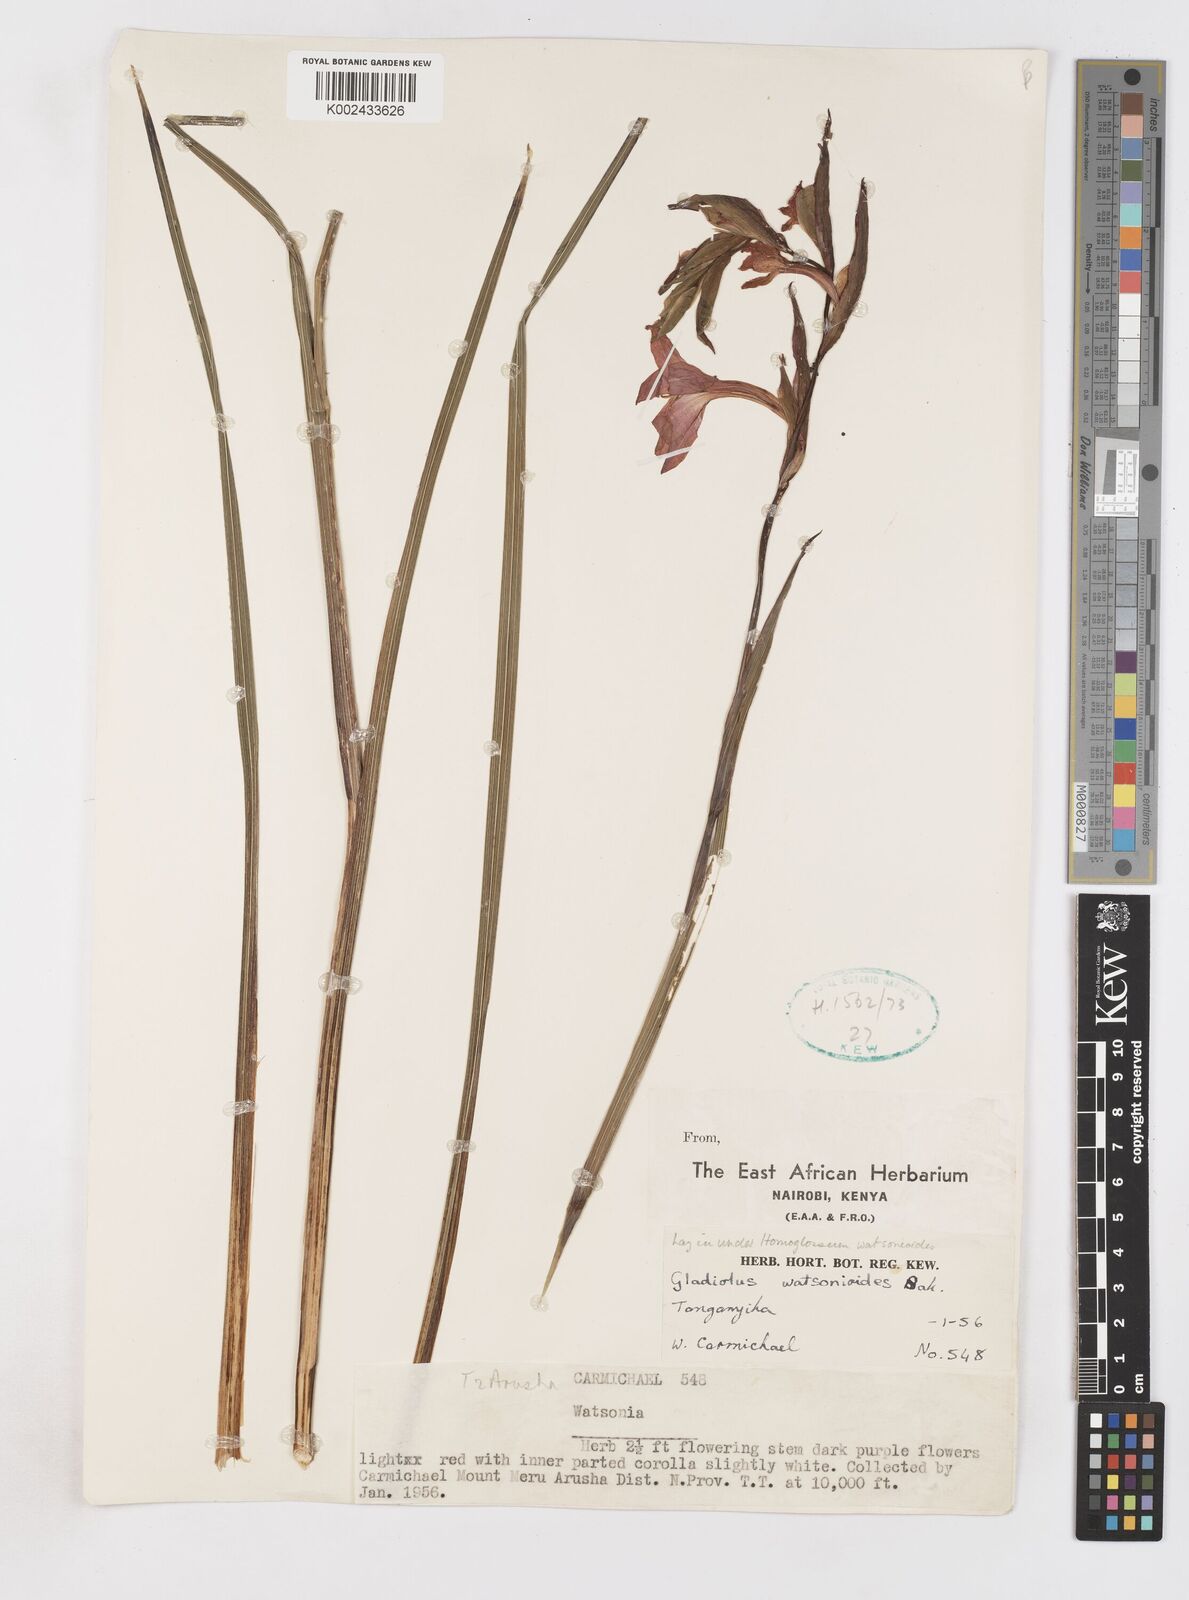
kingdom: Plantae
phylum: Tracheophyta
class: Liliopsida
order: Asparagales
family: Iridaceae
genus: Gladiolus
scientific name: Gladiolus watsonioides
